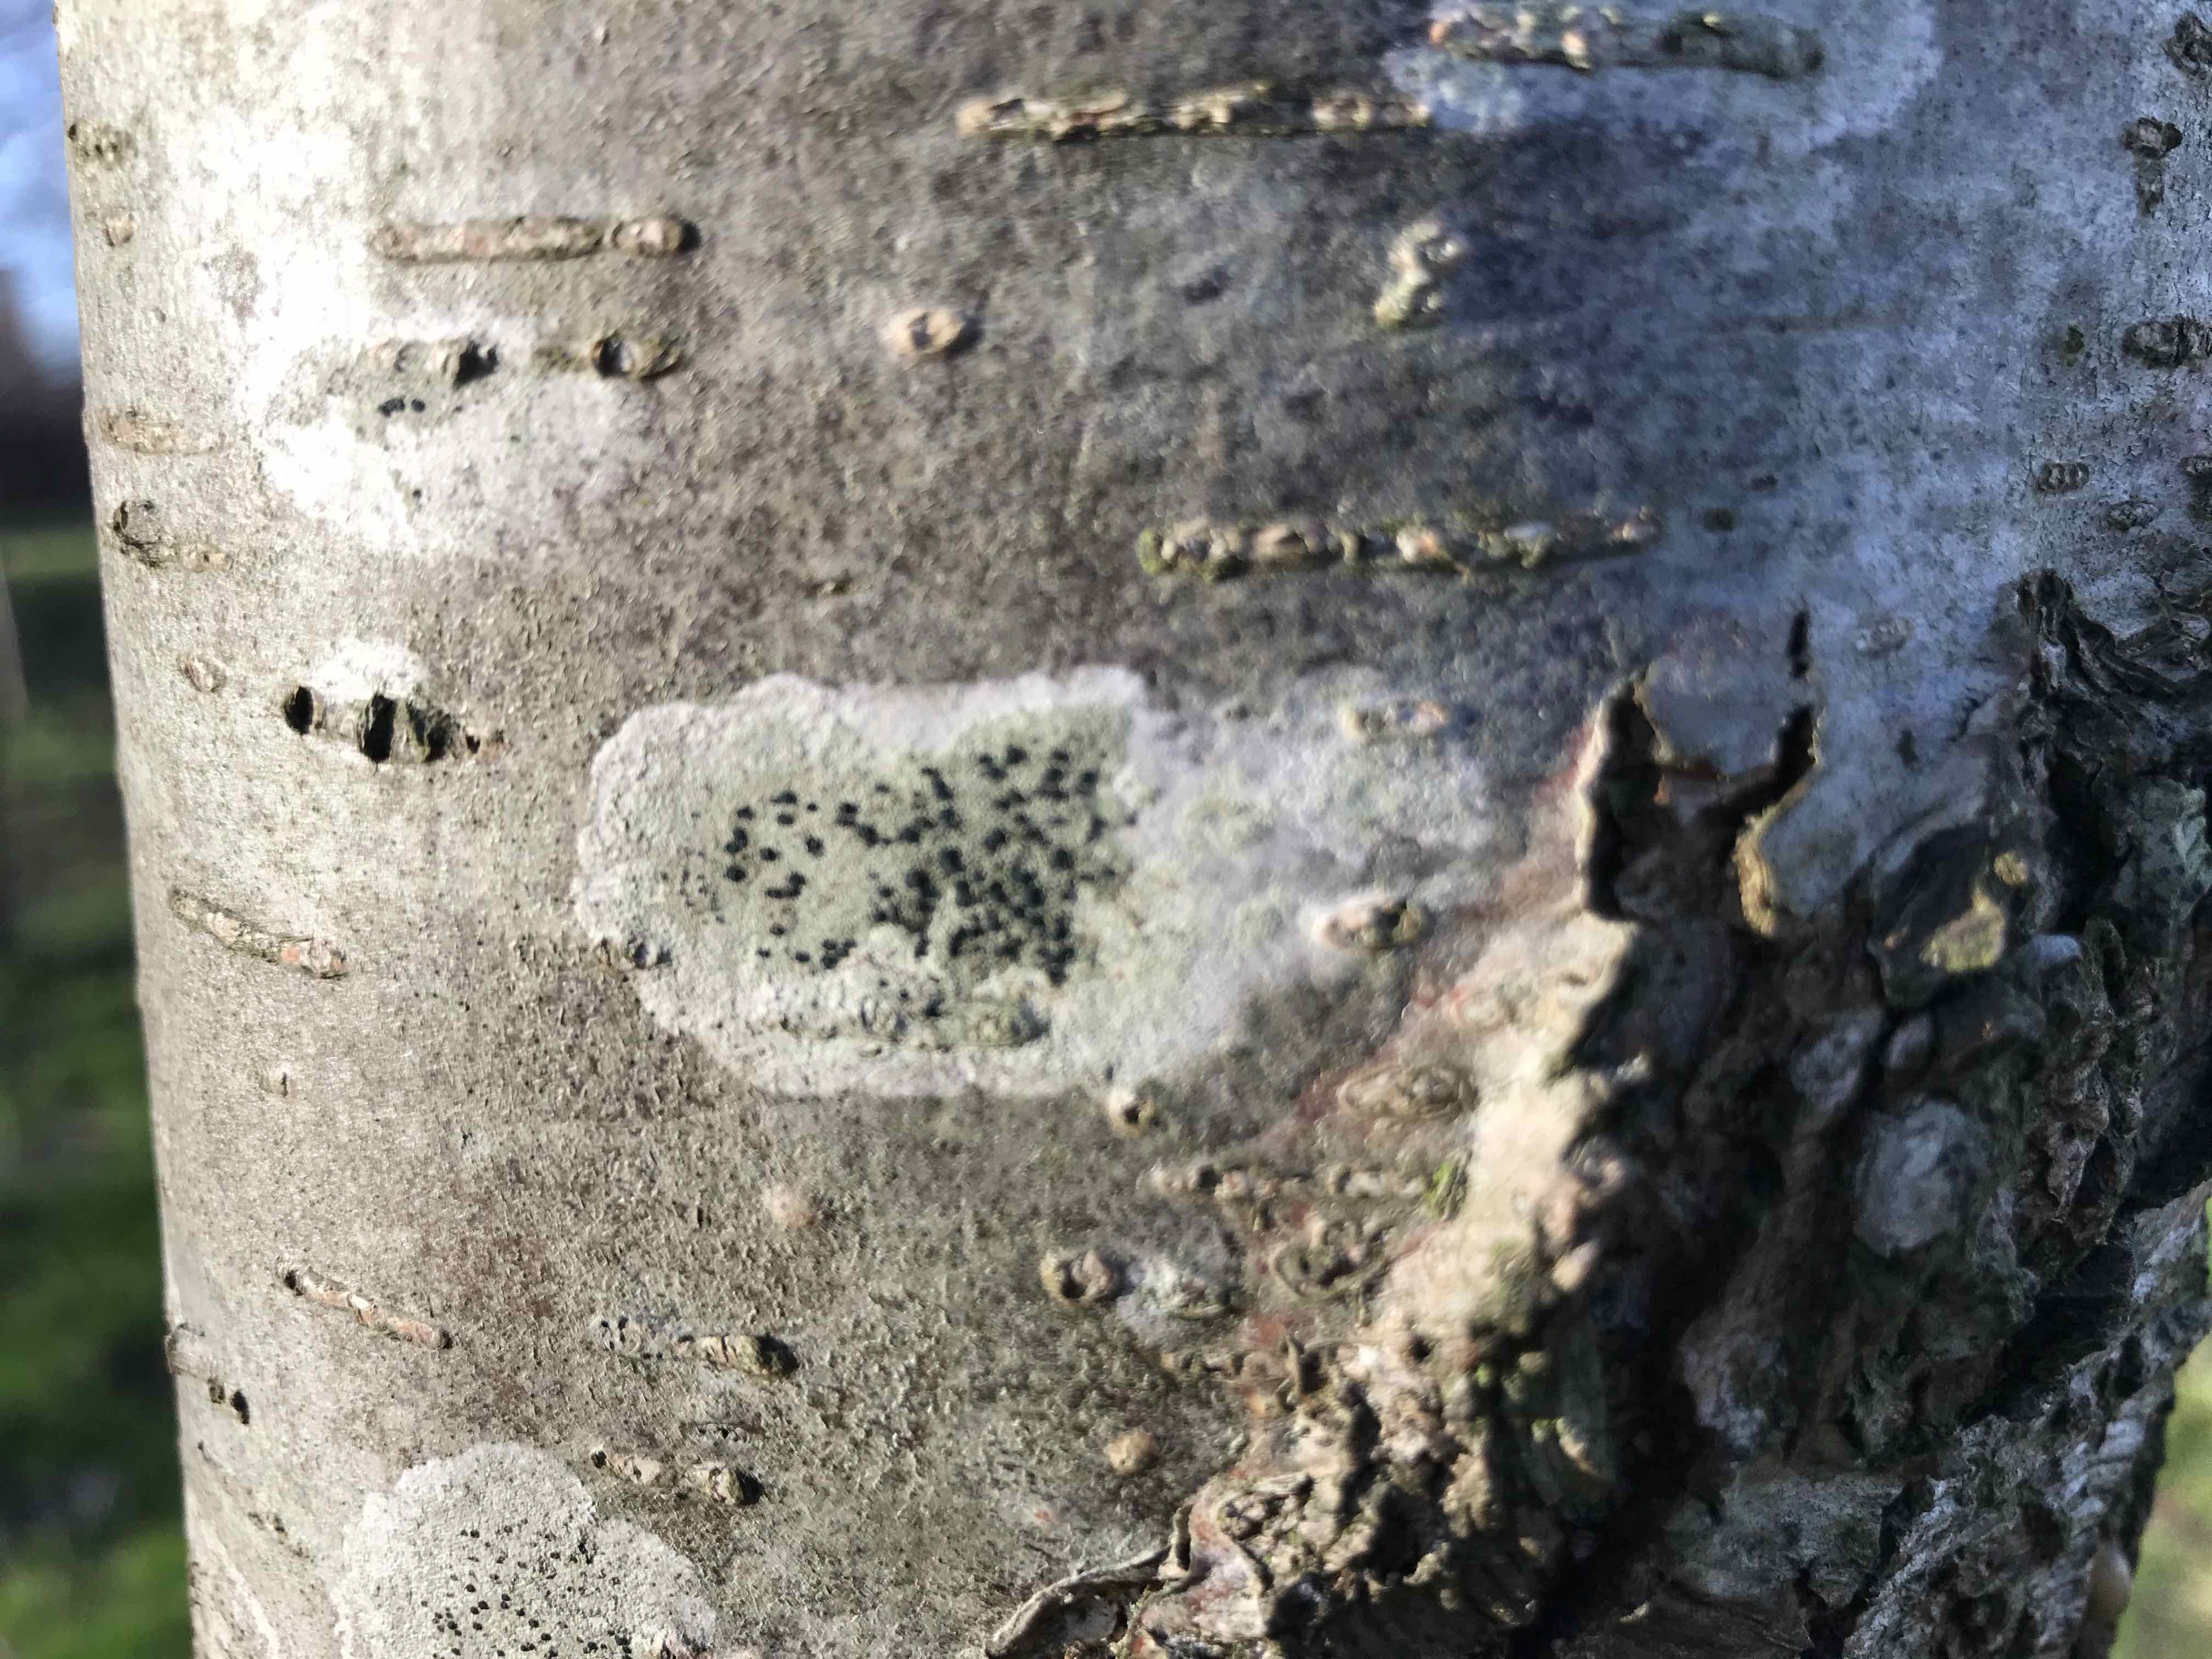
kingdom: Fungi
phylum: Ascomycota
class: Lecanoromycetes
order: Lecanorales
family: Lecanoraceae
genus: Lecidella
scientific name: Lecidella elaeochroma
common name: grågrøn skivelav
